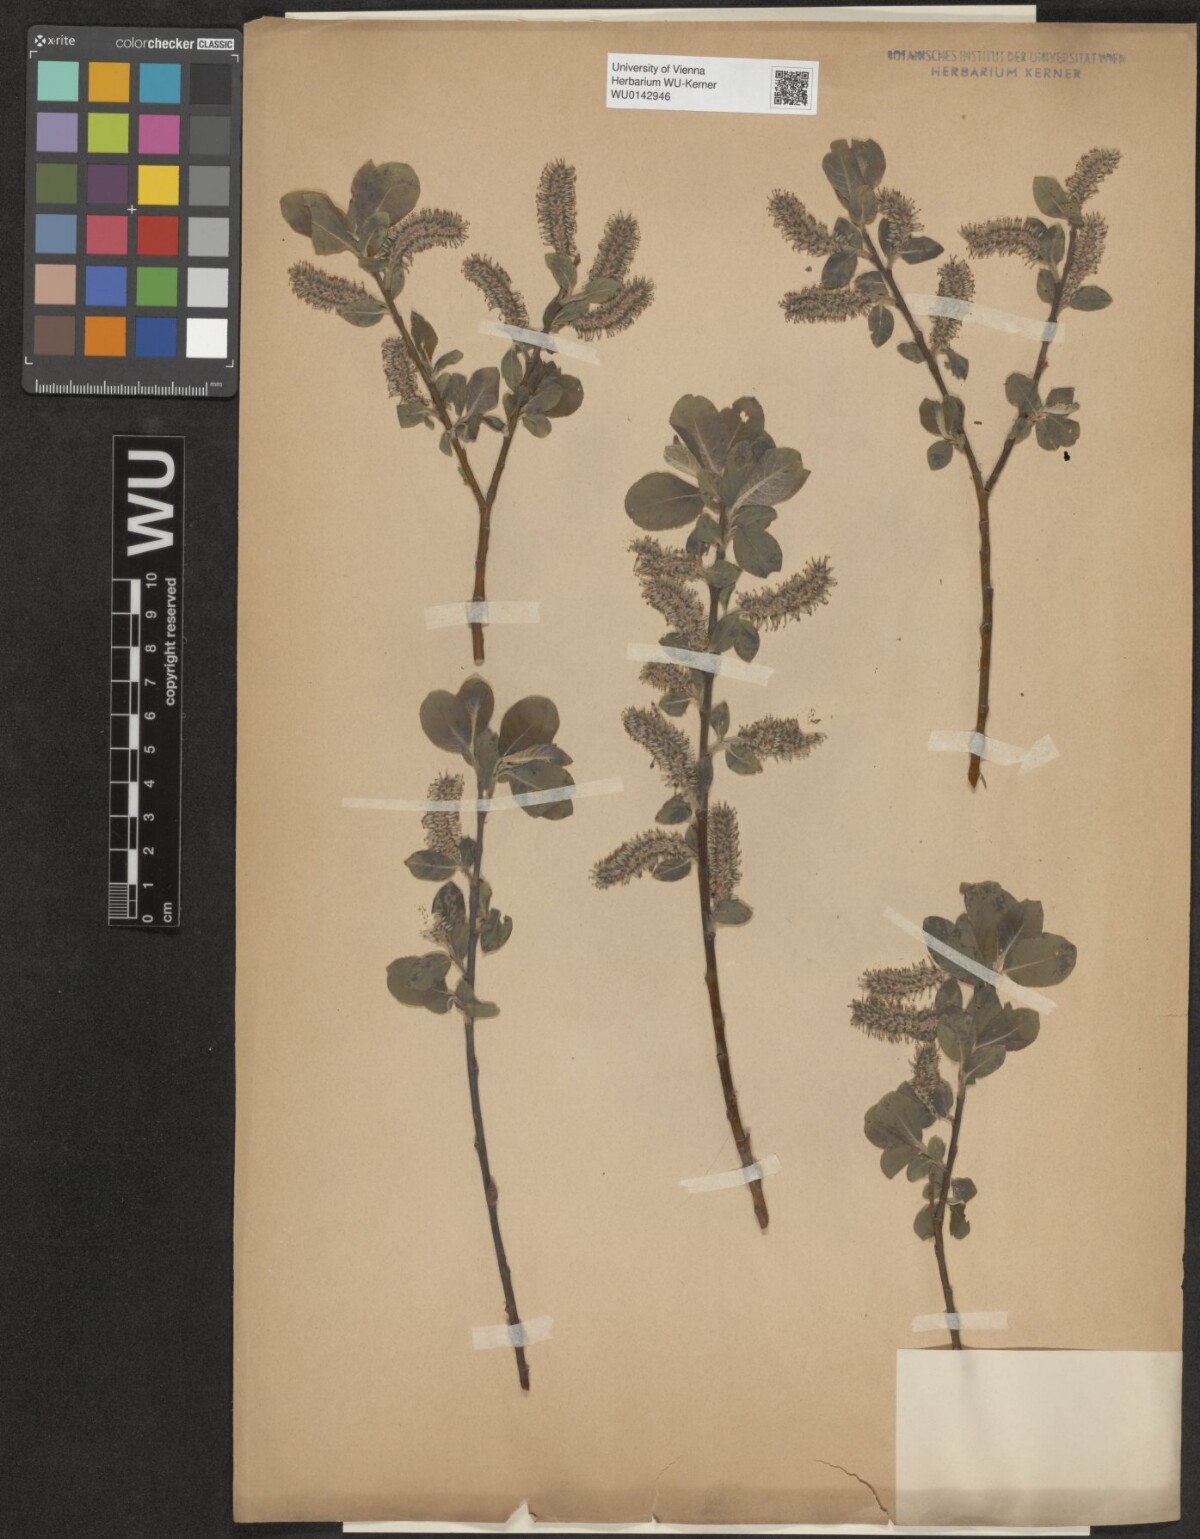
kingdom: Plantae
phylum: Tracheophyta
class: Magnoliopsida
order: Malpighiales
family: Salicaceae
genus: Salix
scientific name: Salix myrsinifolia
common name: Dark-leaved willow
